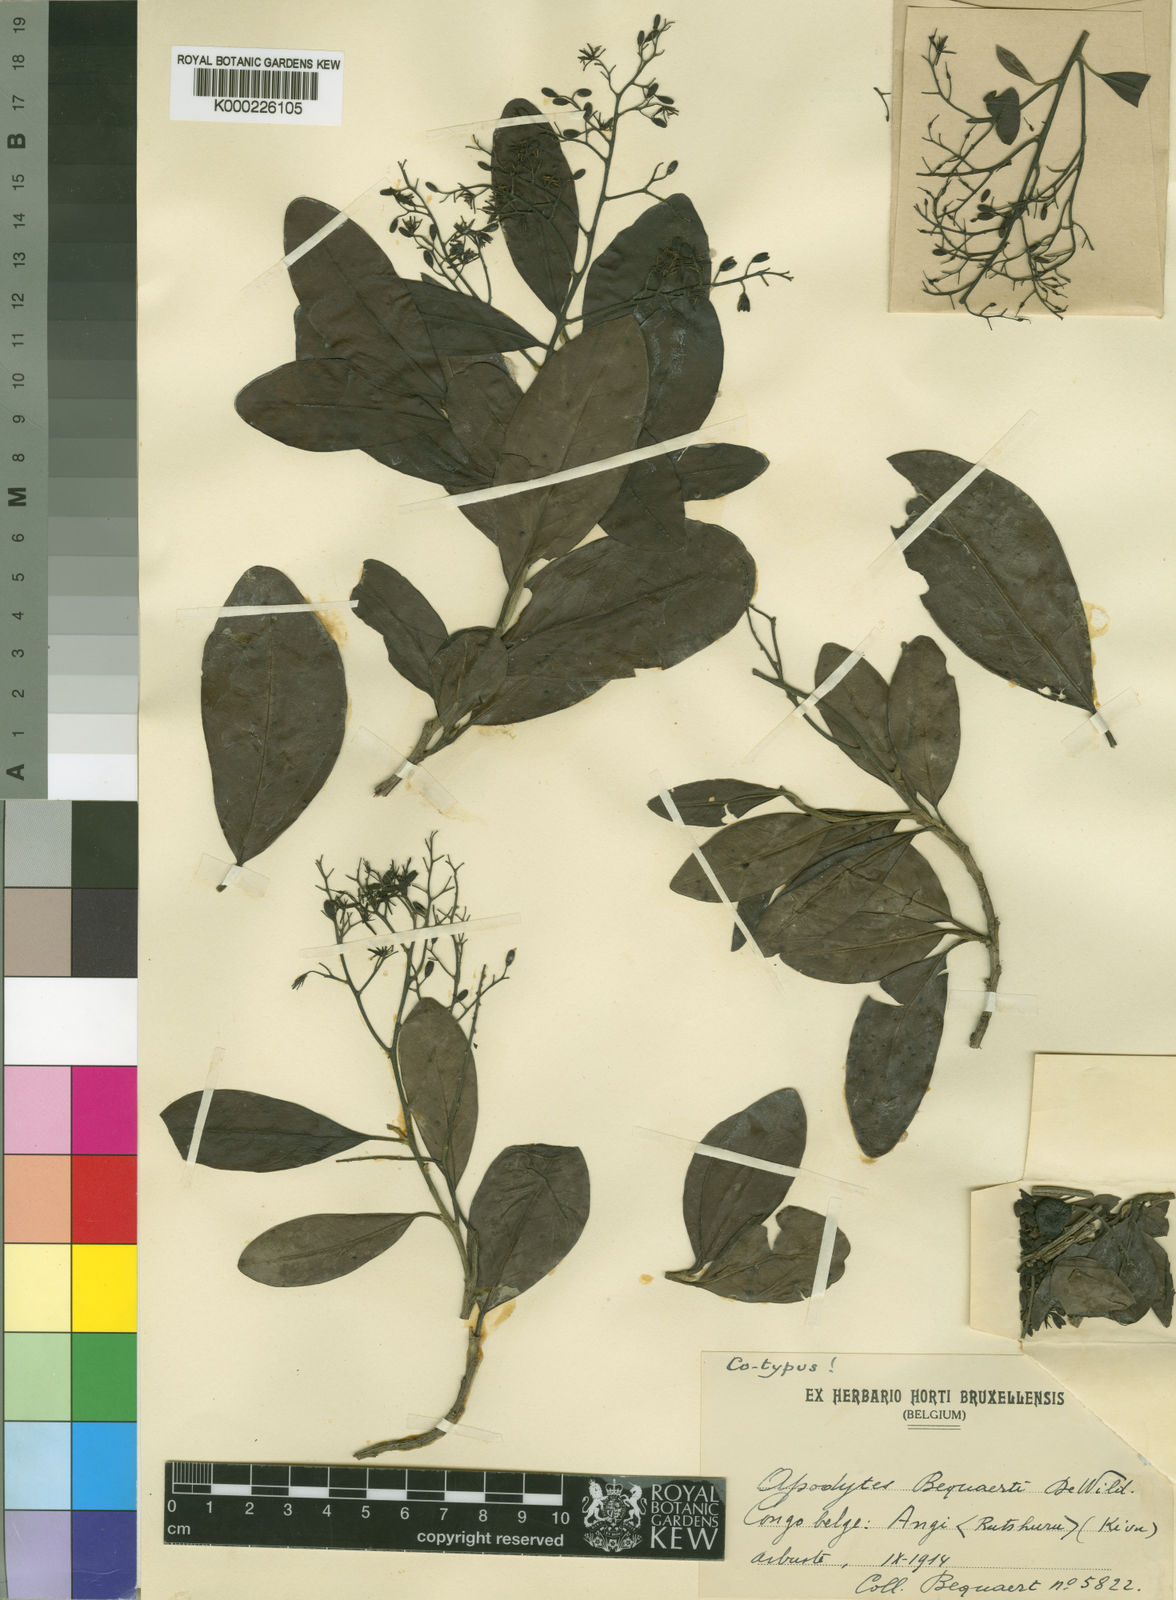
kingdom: Plantae
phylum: Tracheophyta
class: Magnoliopsida
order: Metteniusales
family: Metteniusaceae
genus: Apodytes
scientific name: Apodytes dimidiata
